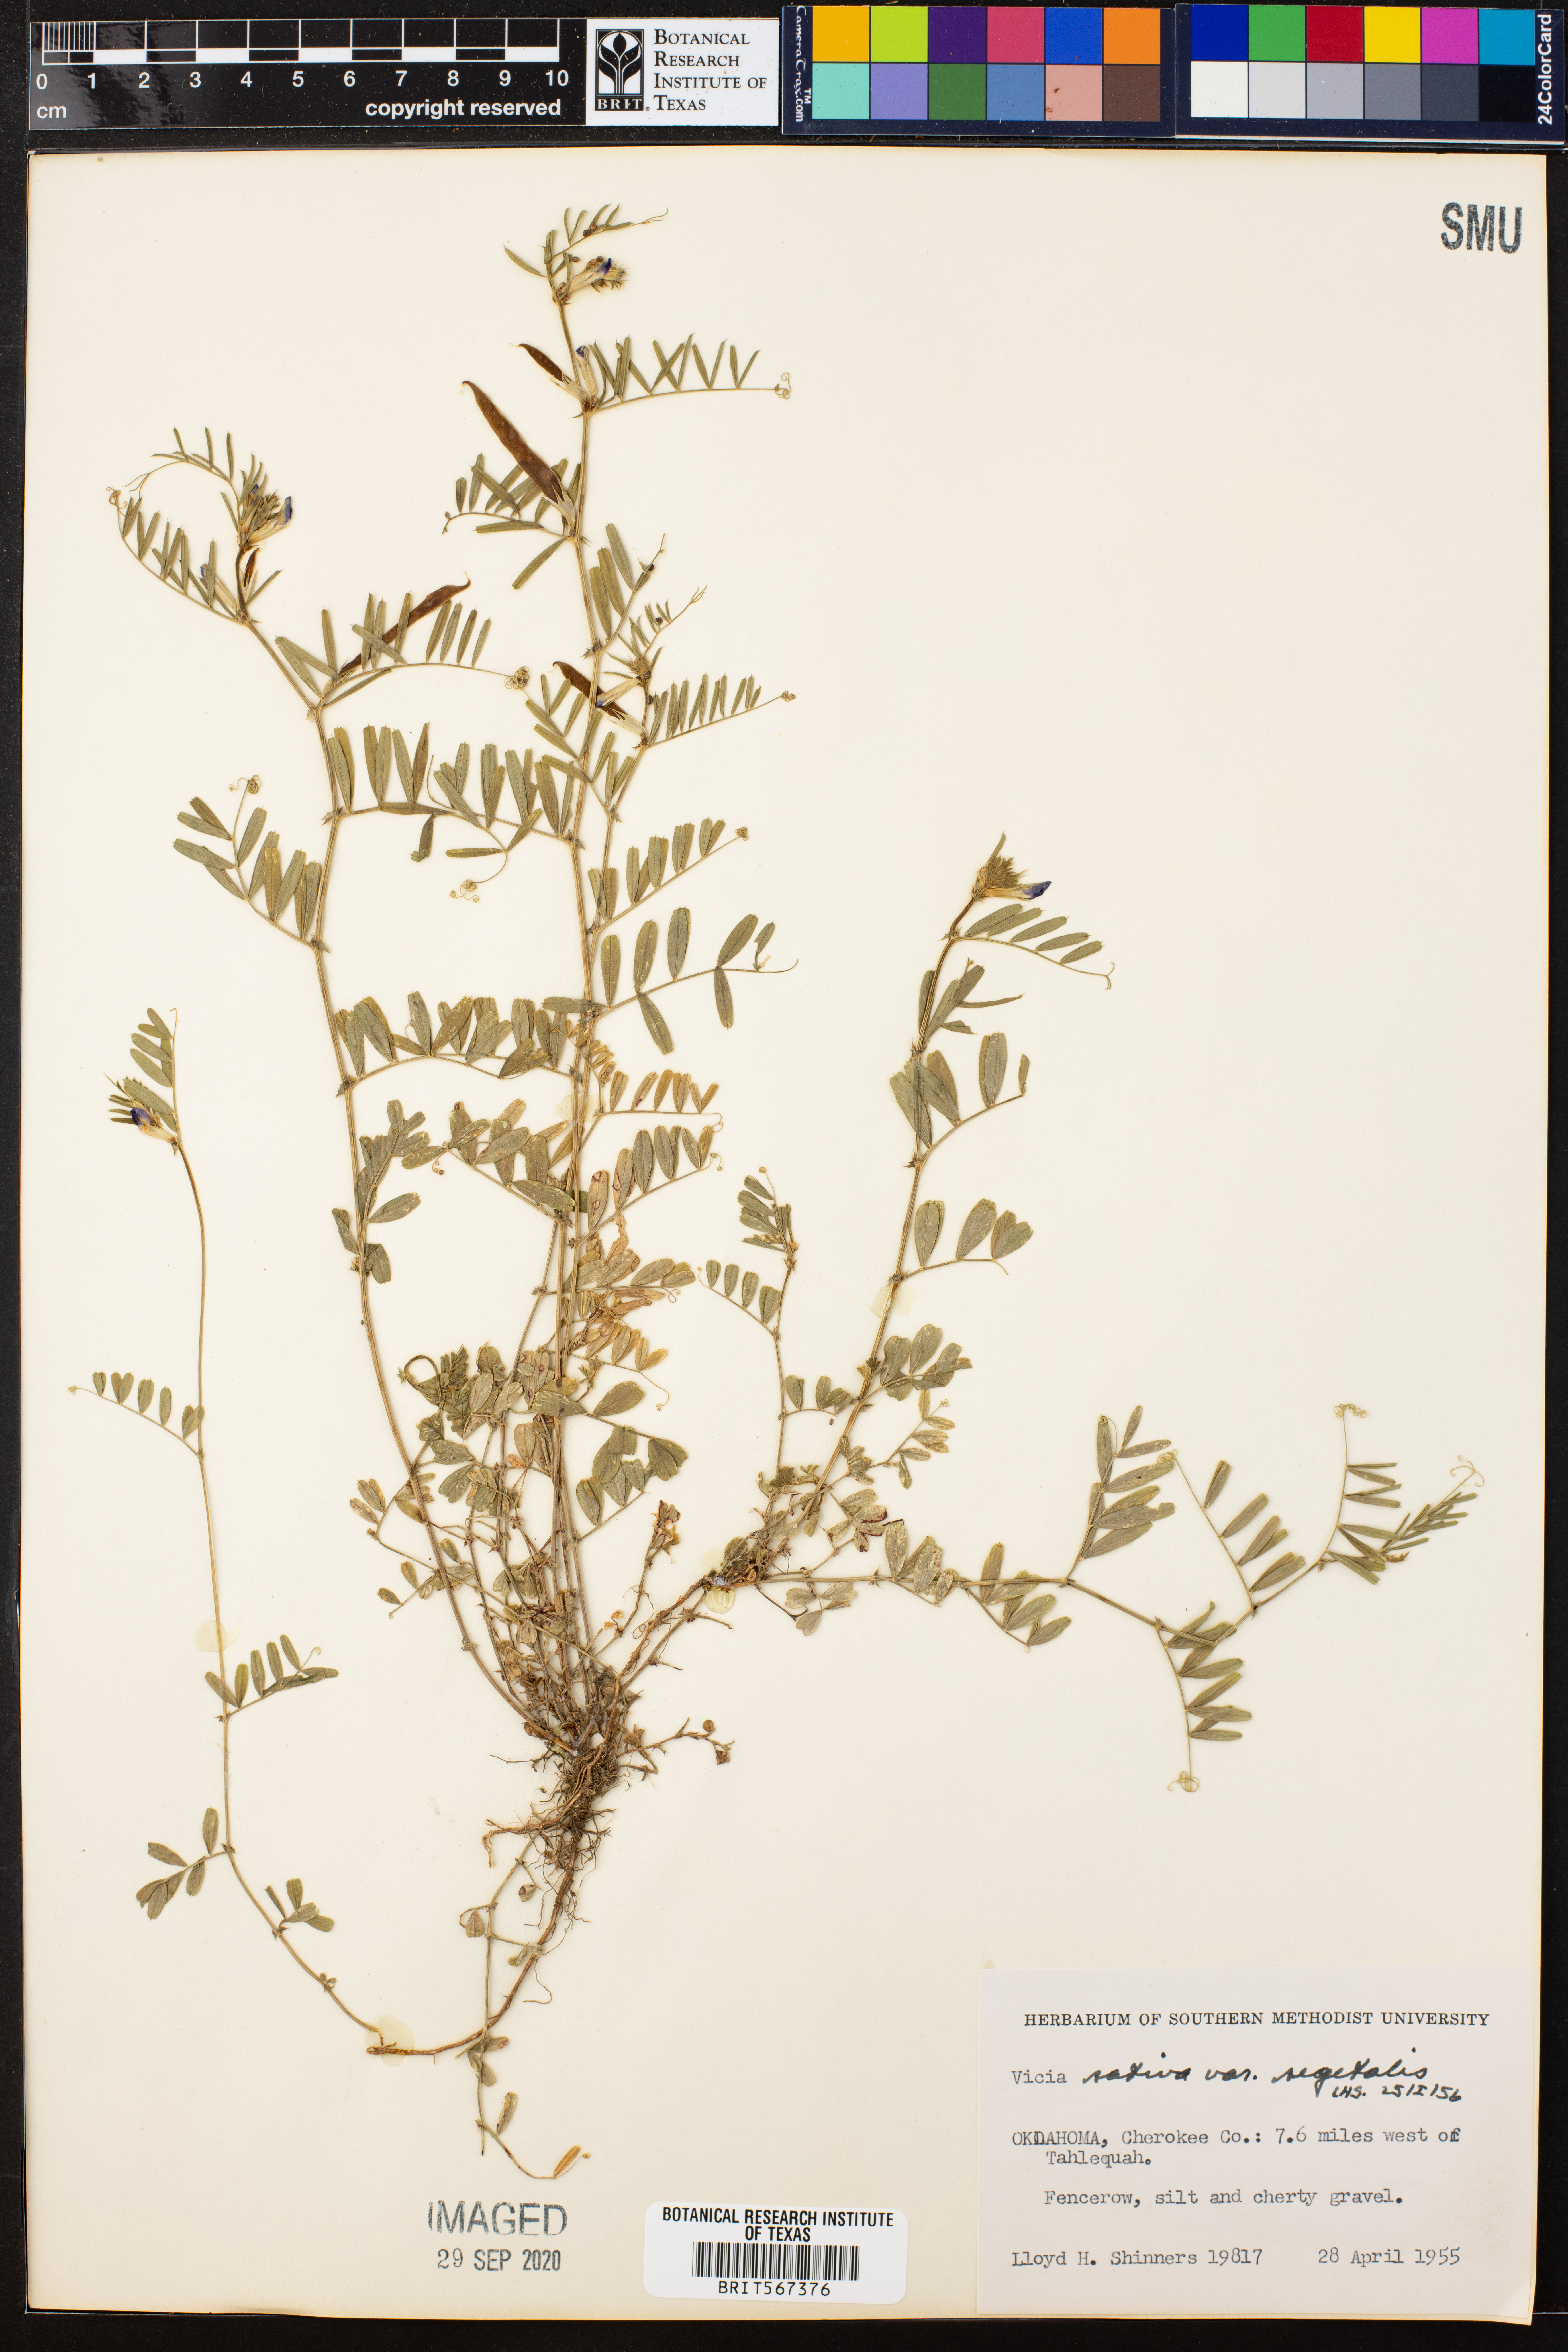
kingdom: Plantae
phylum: Tracheophyta
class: Magnoliopsida
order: Fabales
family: Fabaceae
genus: Vicia
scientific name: Vicia sativa
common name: Garden vetch
